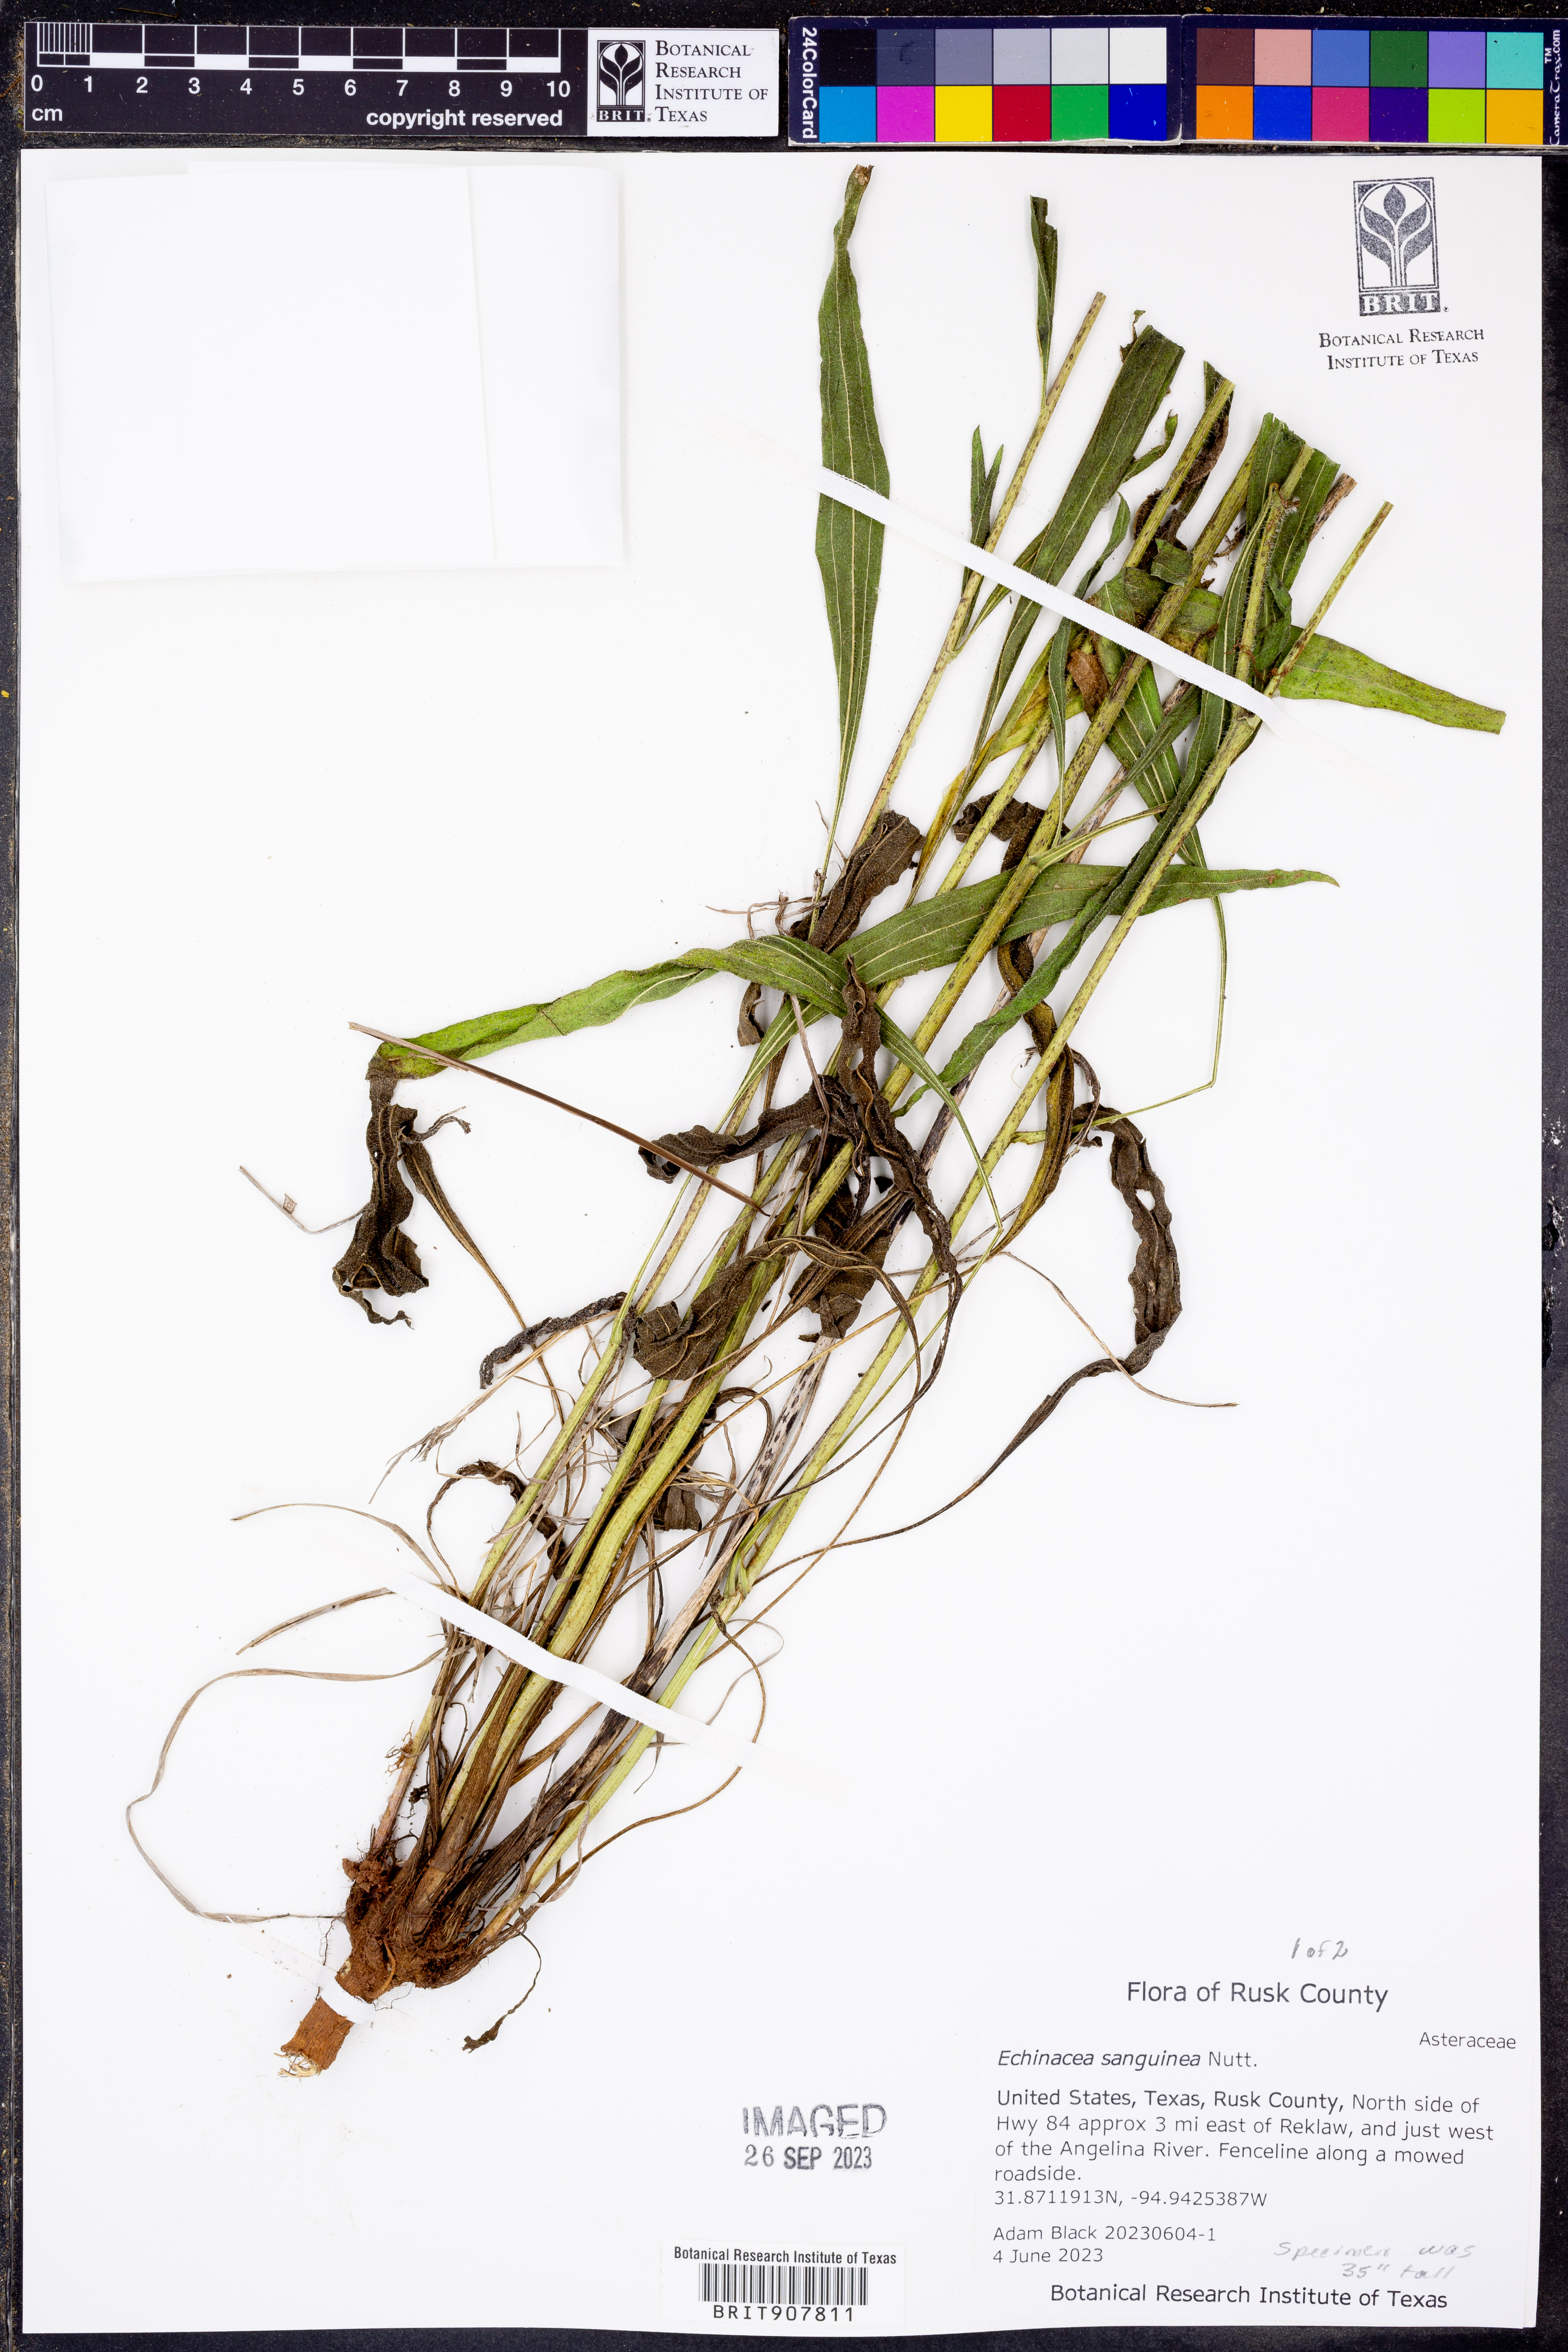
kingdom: Plantae
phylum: Tracheophyta
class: Magnoliopsida
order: Asterales
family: Asteraceae
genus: Echinacea
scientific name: Echinacea sanguinea
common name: Sanguine purple-coneflower
